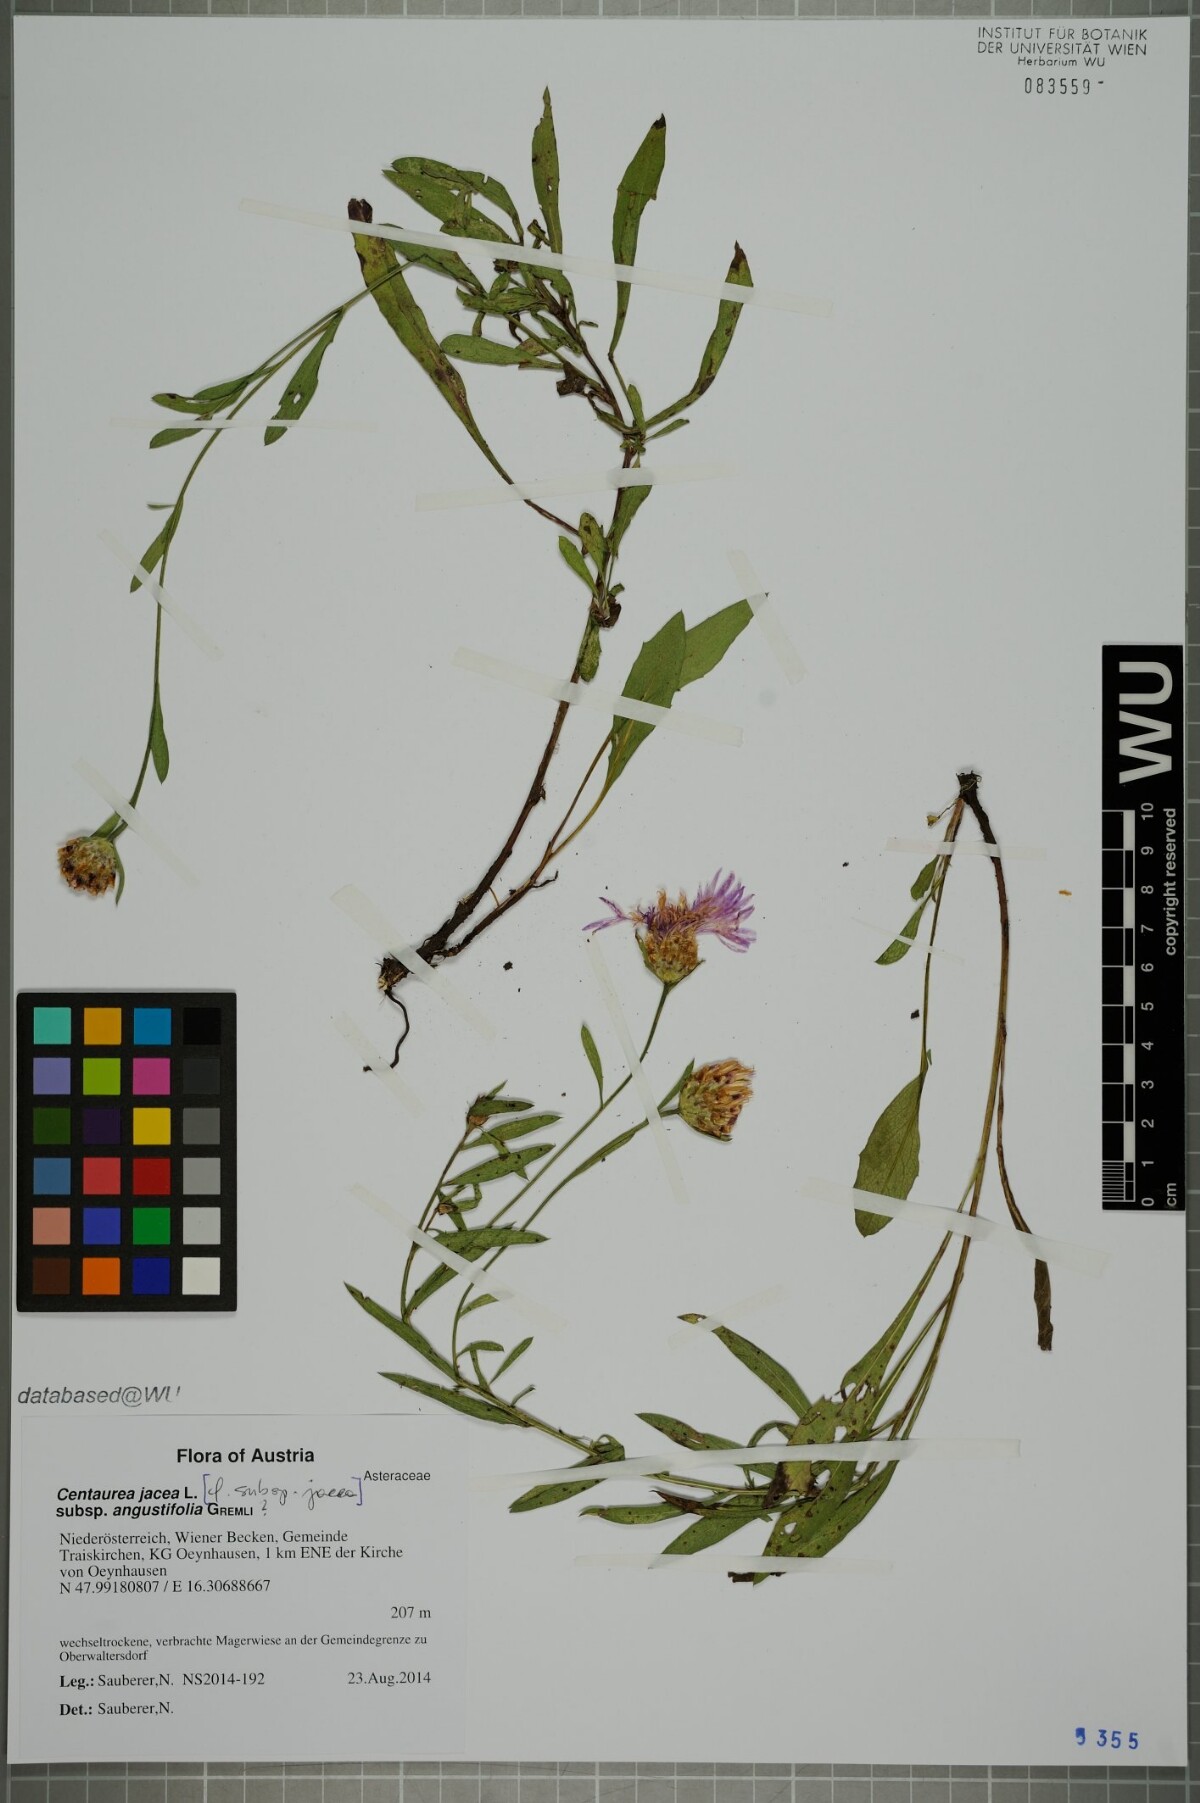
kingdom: Plantae
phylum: Tracheophyta
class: Magnoliopsida
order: Asterales
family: Asteraceae
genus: Centaurea
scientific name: Centaurea pannonica
